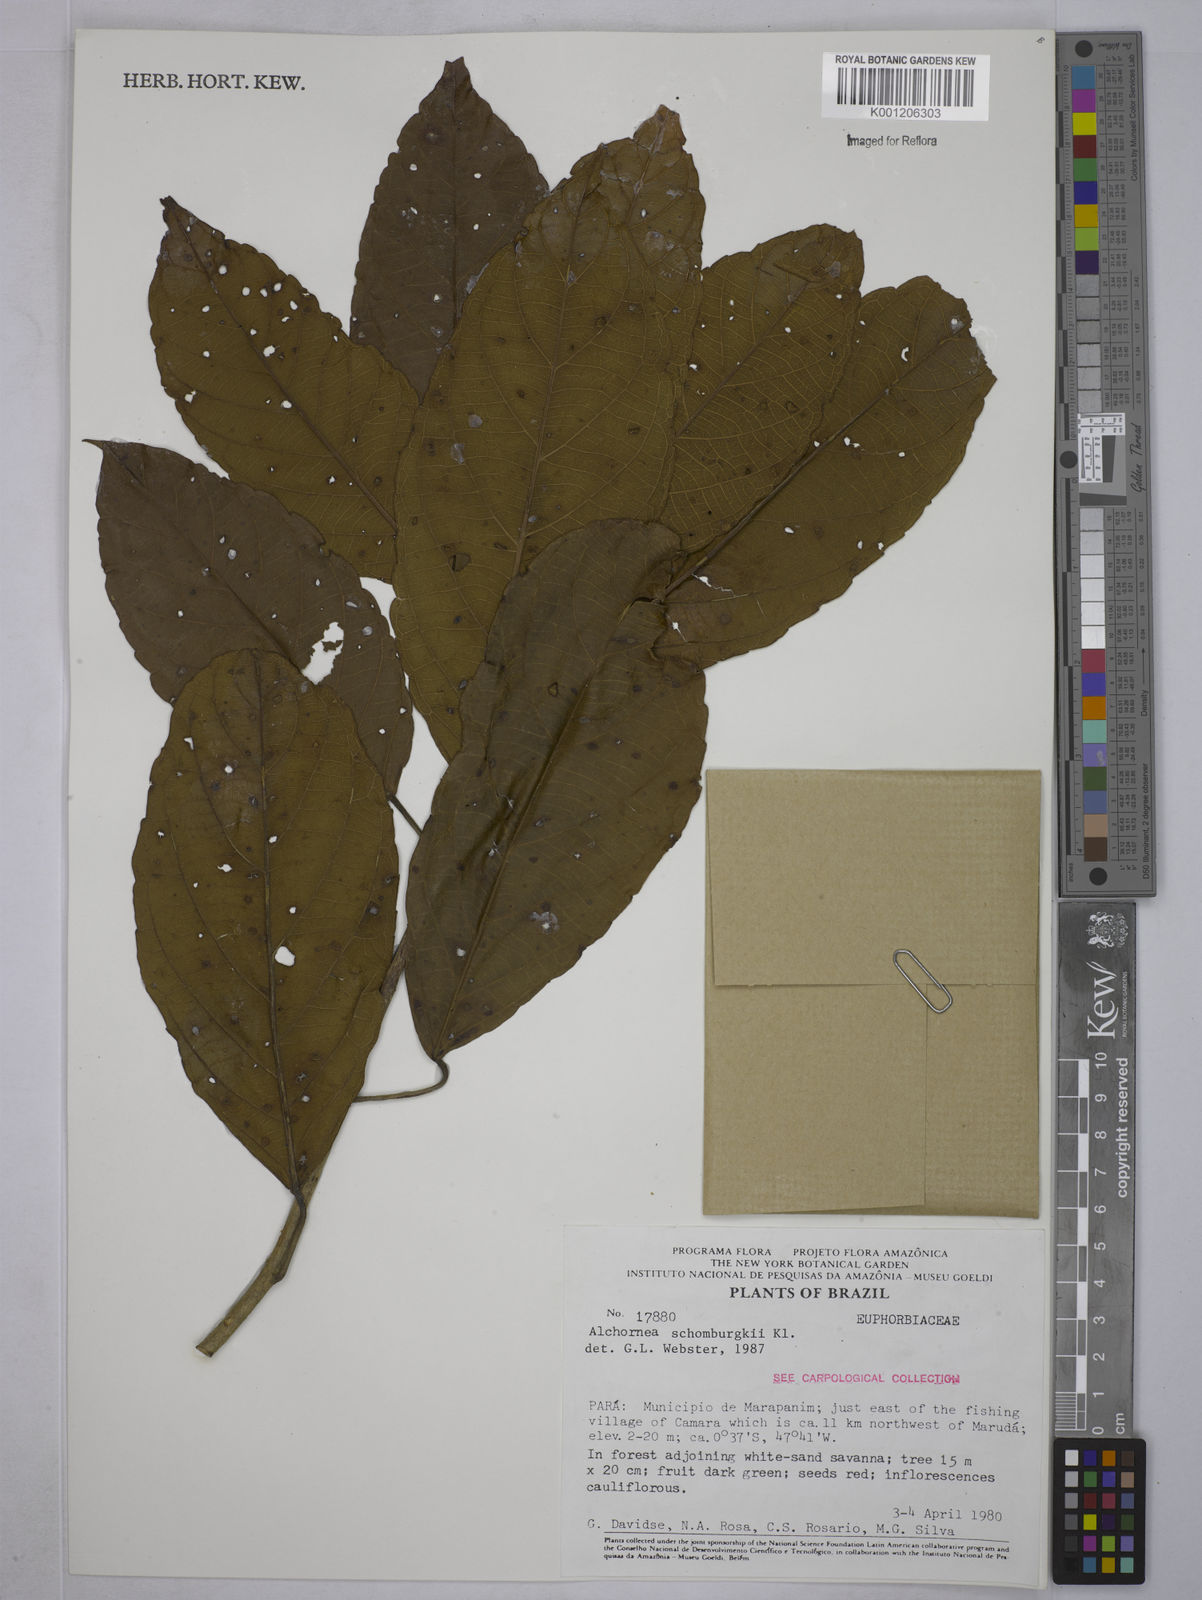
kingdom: Plantae
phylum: Tracheophyta
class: Magnoliopsida
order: Malpighiales
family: Euphorbiaceae
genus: Alchornea
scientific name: Alchornea discolor
